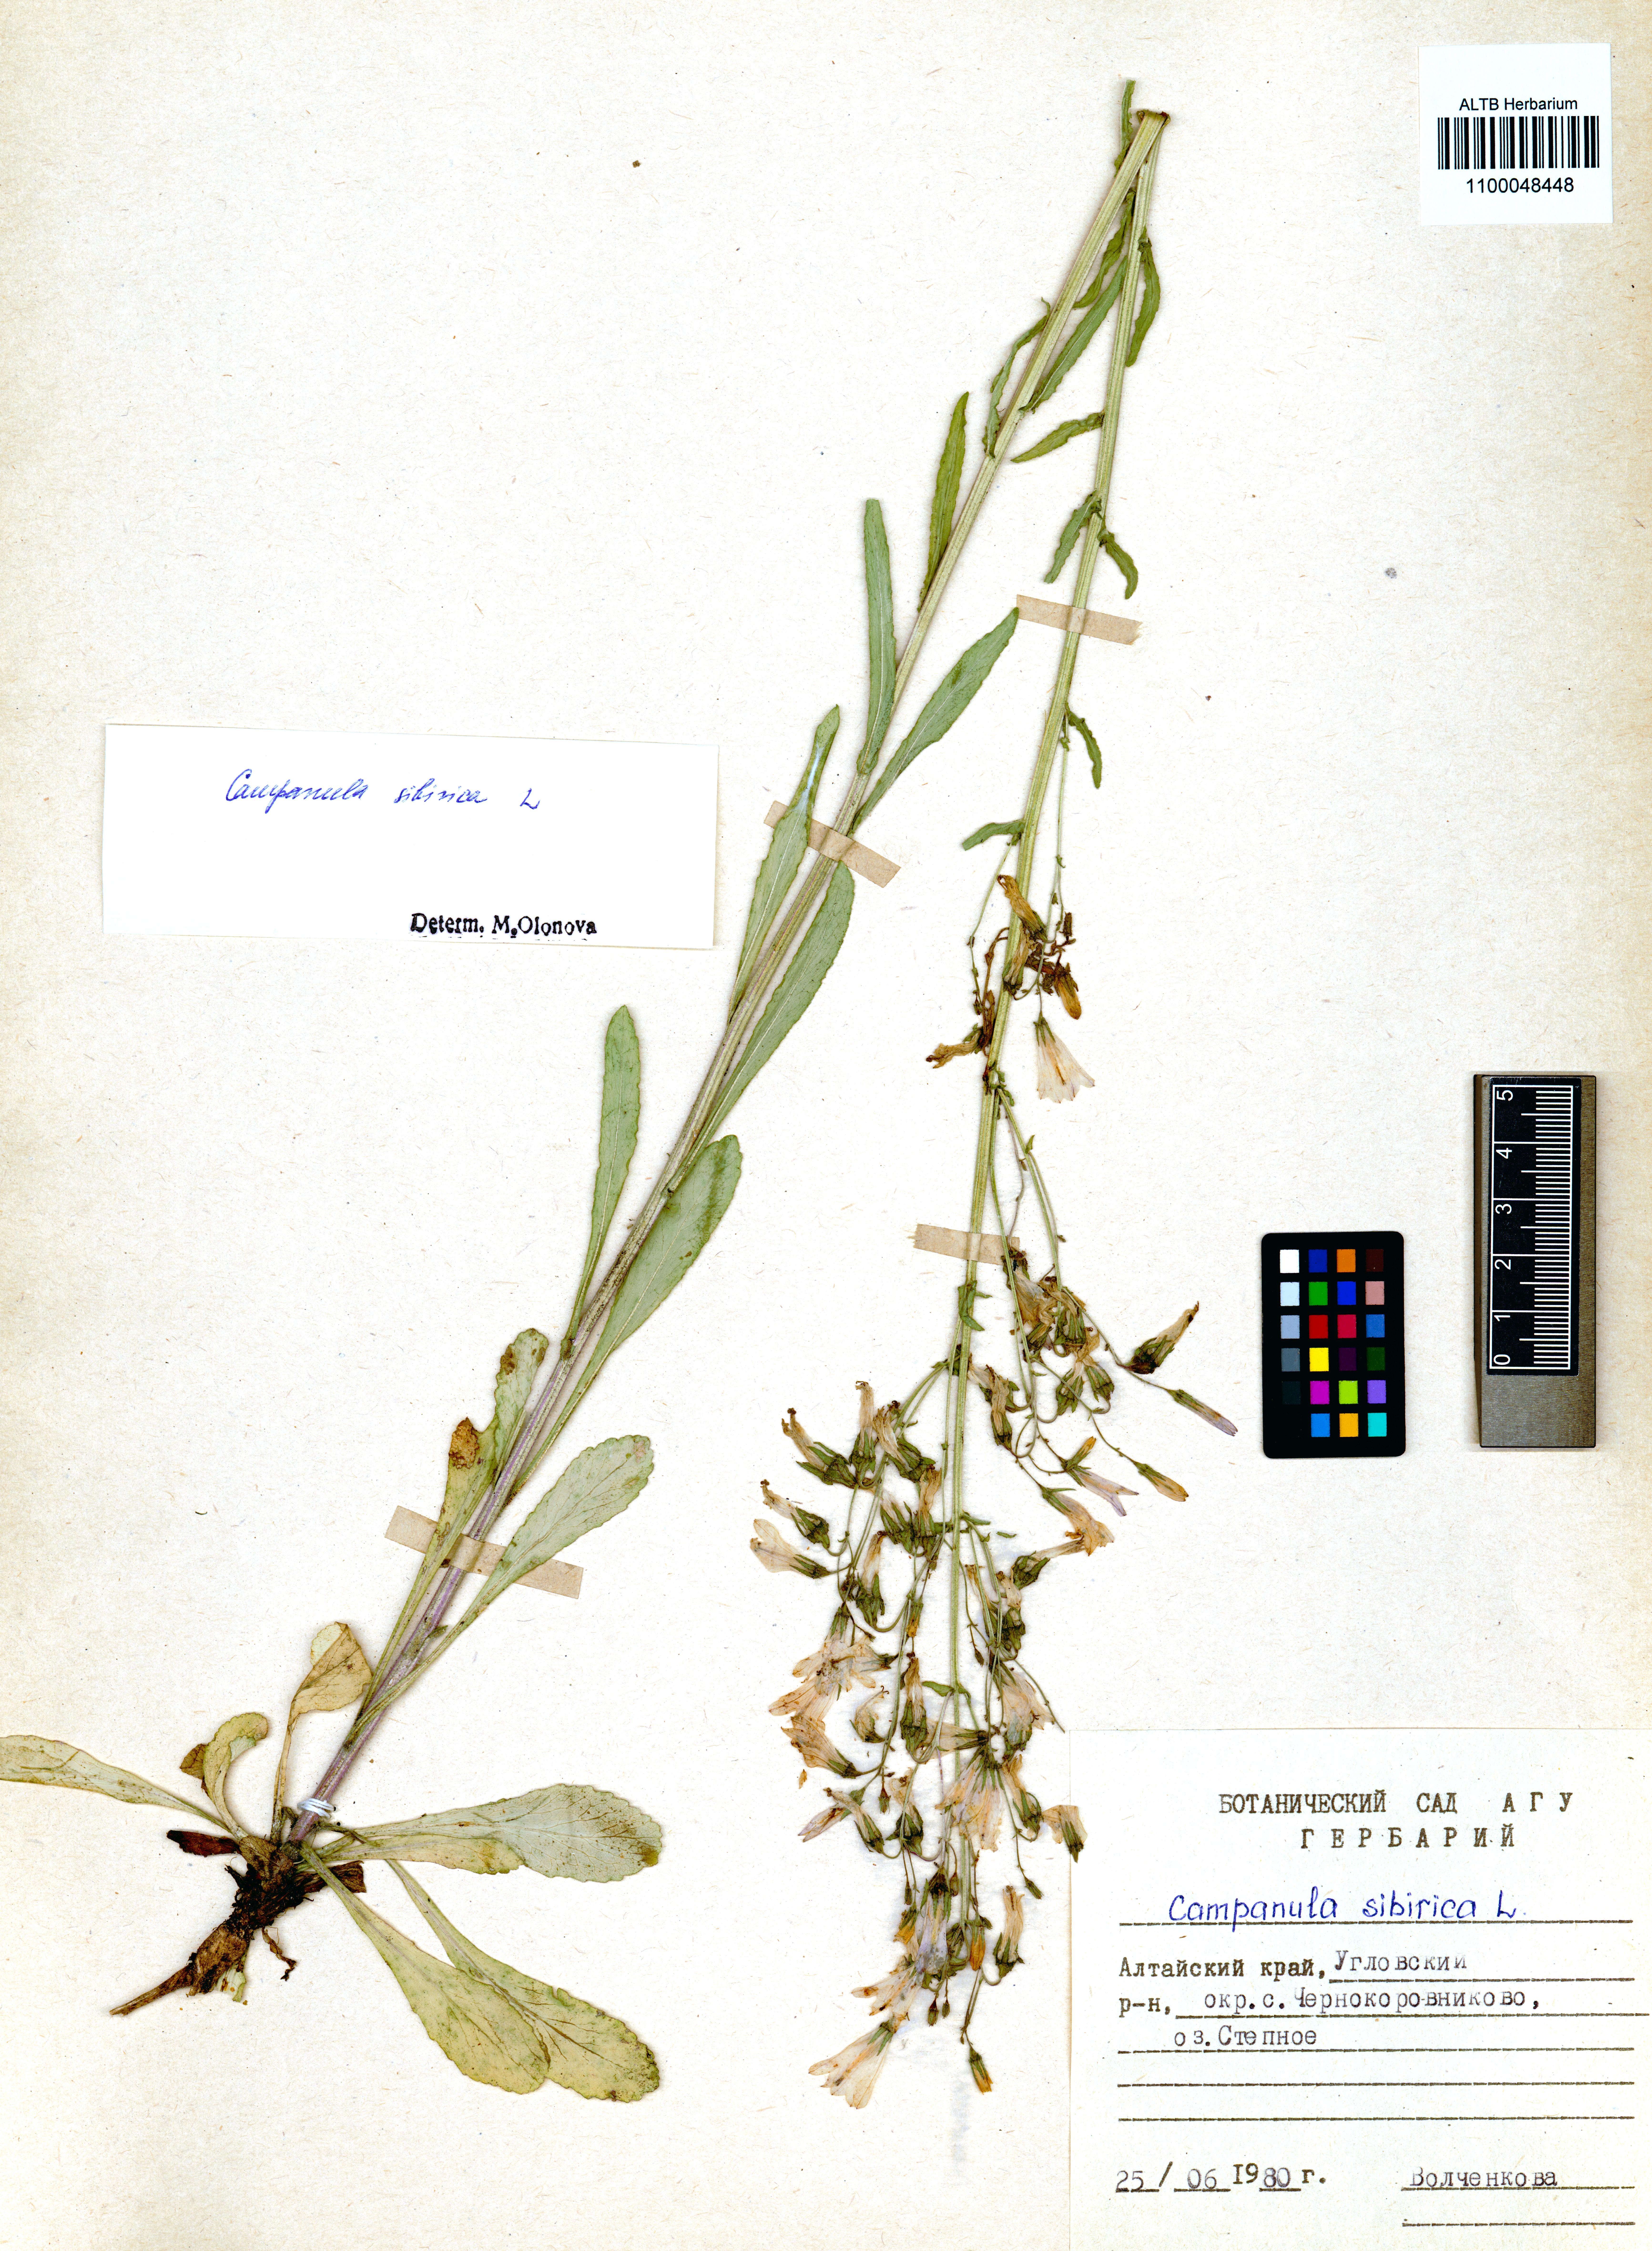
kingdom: Plantae
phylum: Tracheophyta
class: Magnoliopsida
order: Asterales
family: Campanulaceae
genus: Campanula
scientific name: Campanula sibirica
